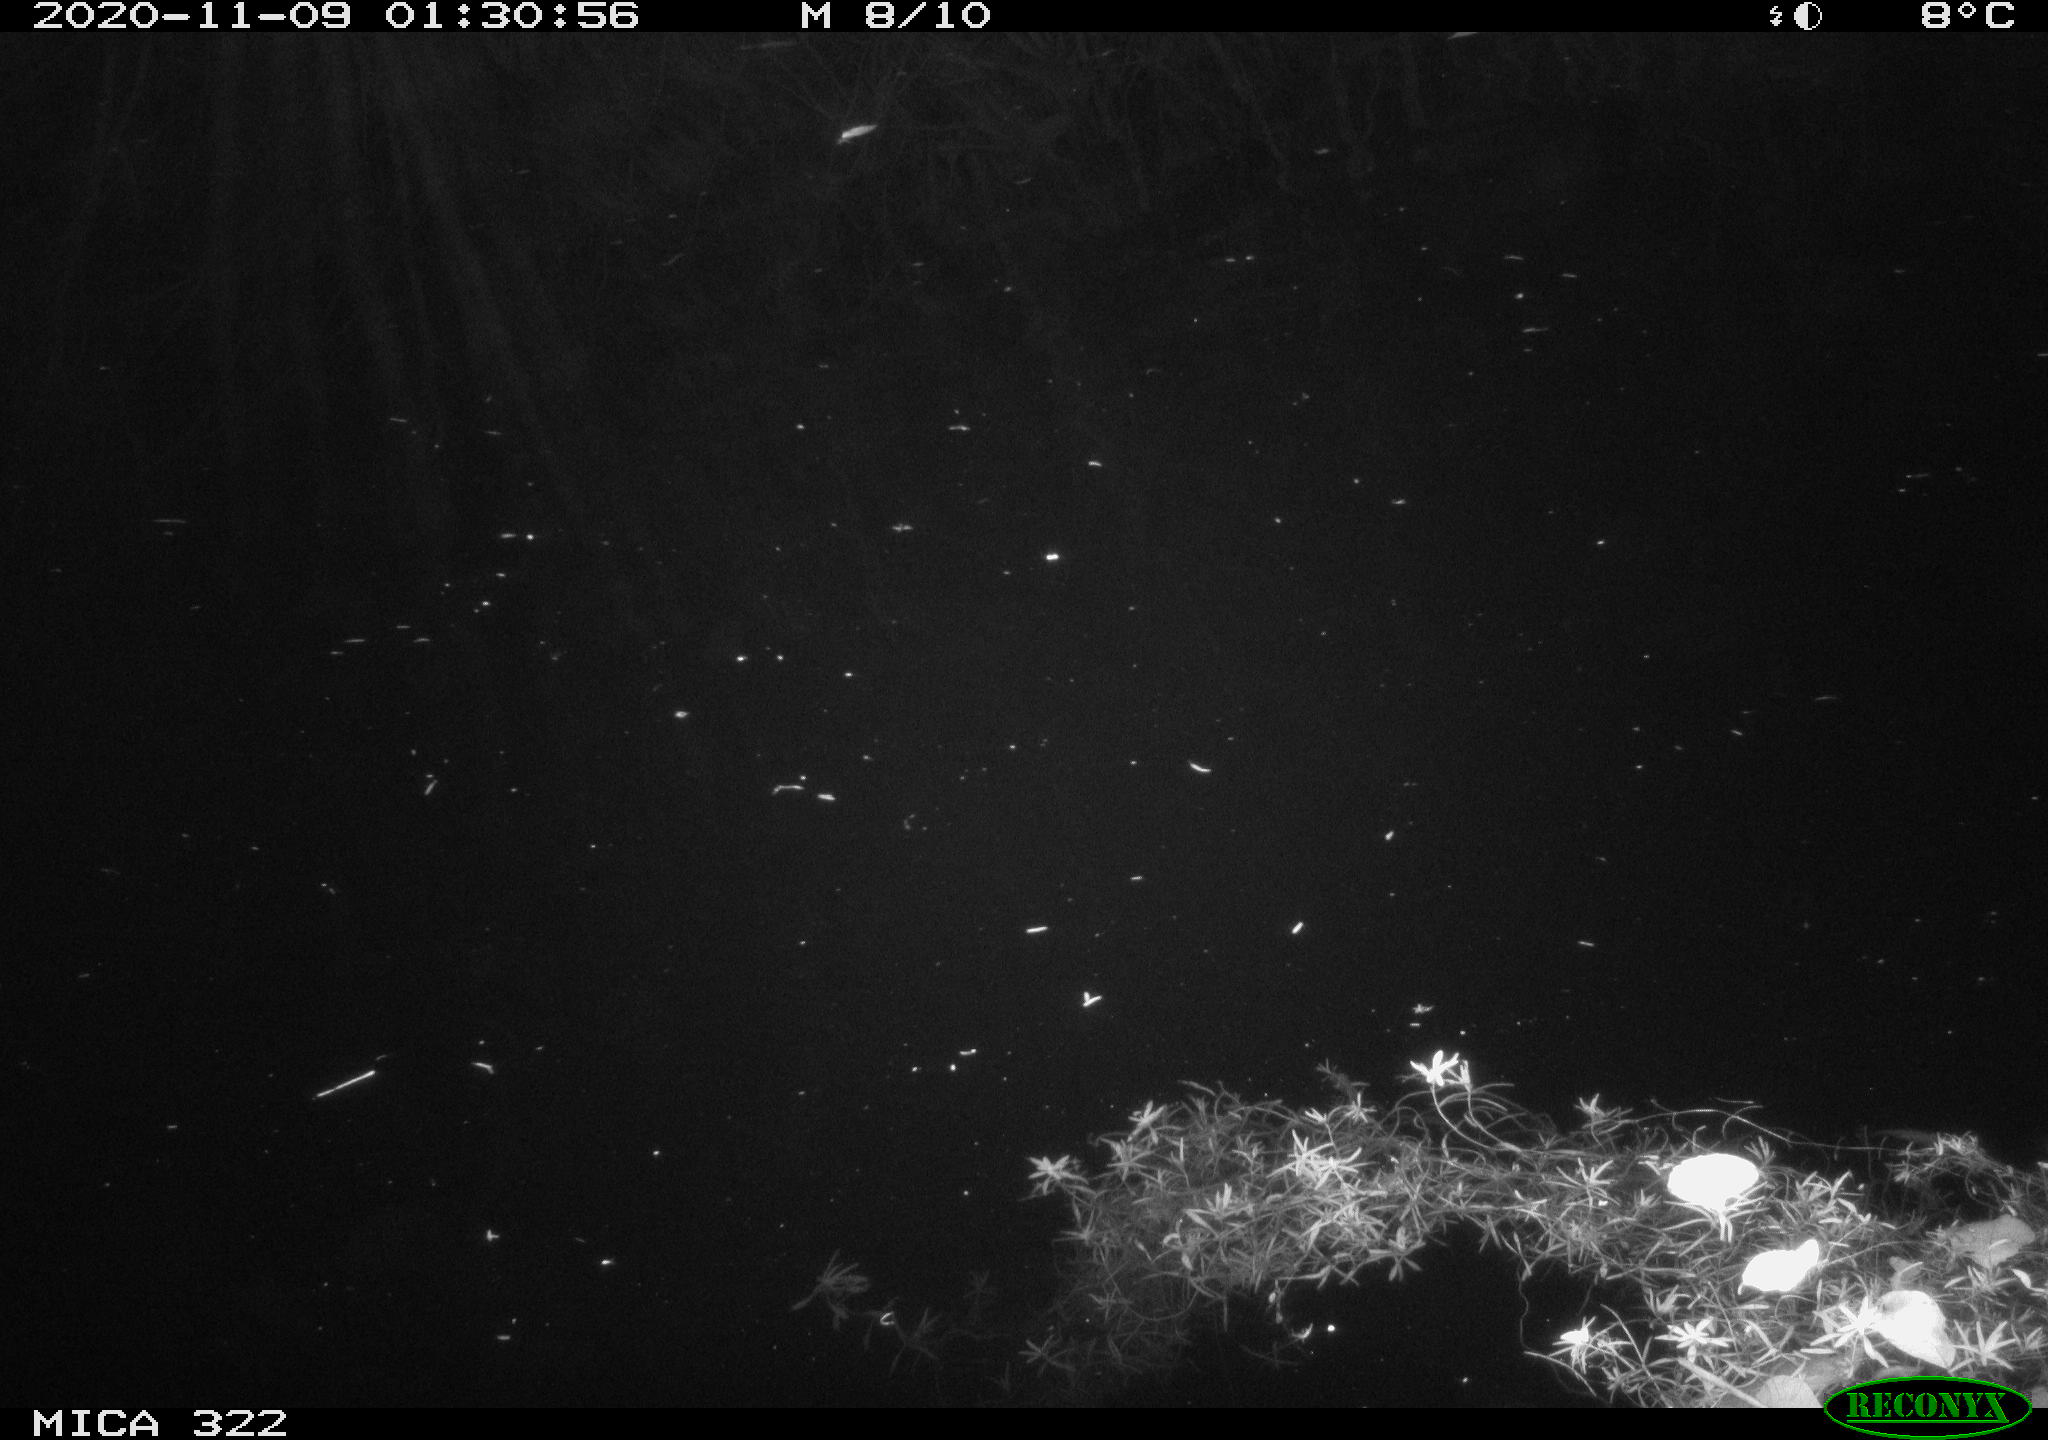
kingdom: Animalia
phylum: Chordata
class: Mammalia
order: Rodentia
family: Muridae
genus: Rattus
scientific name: Rattus norvegicus
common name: Brown rat
